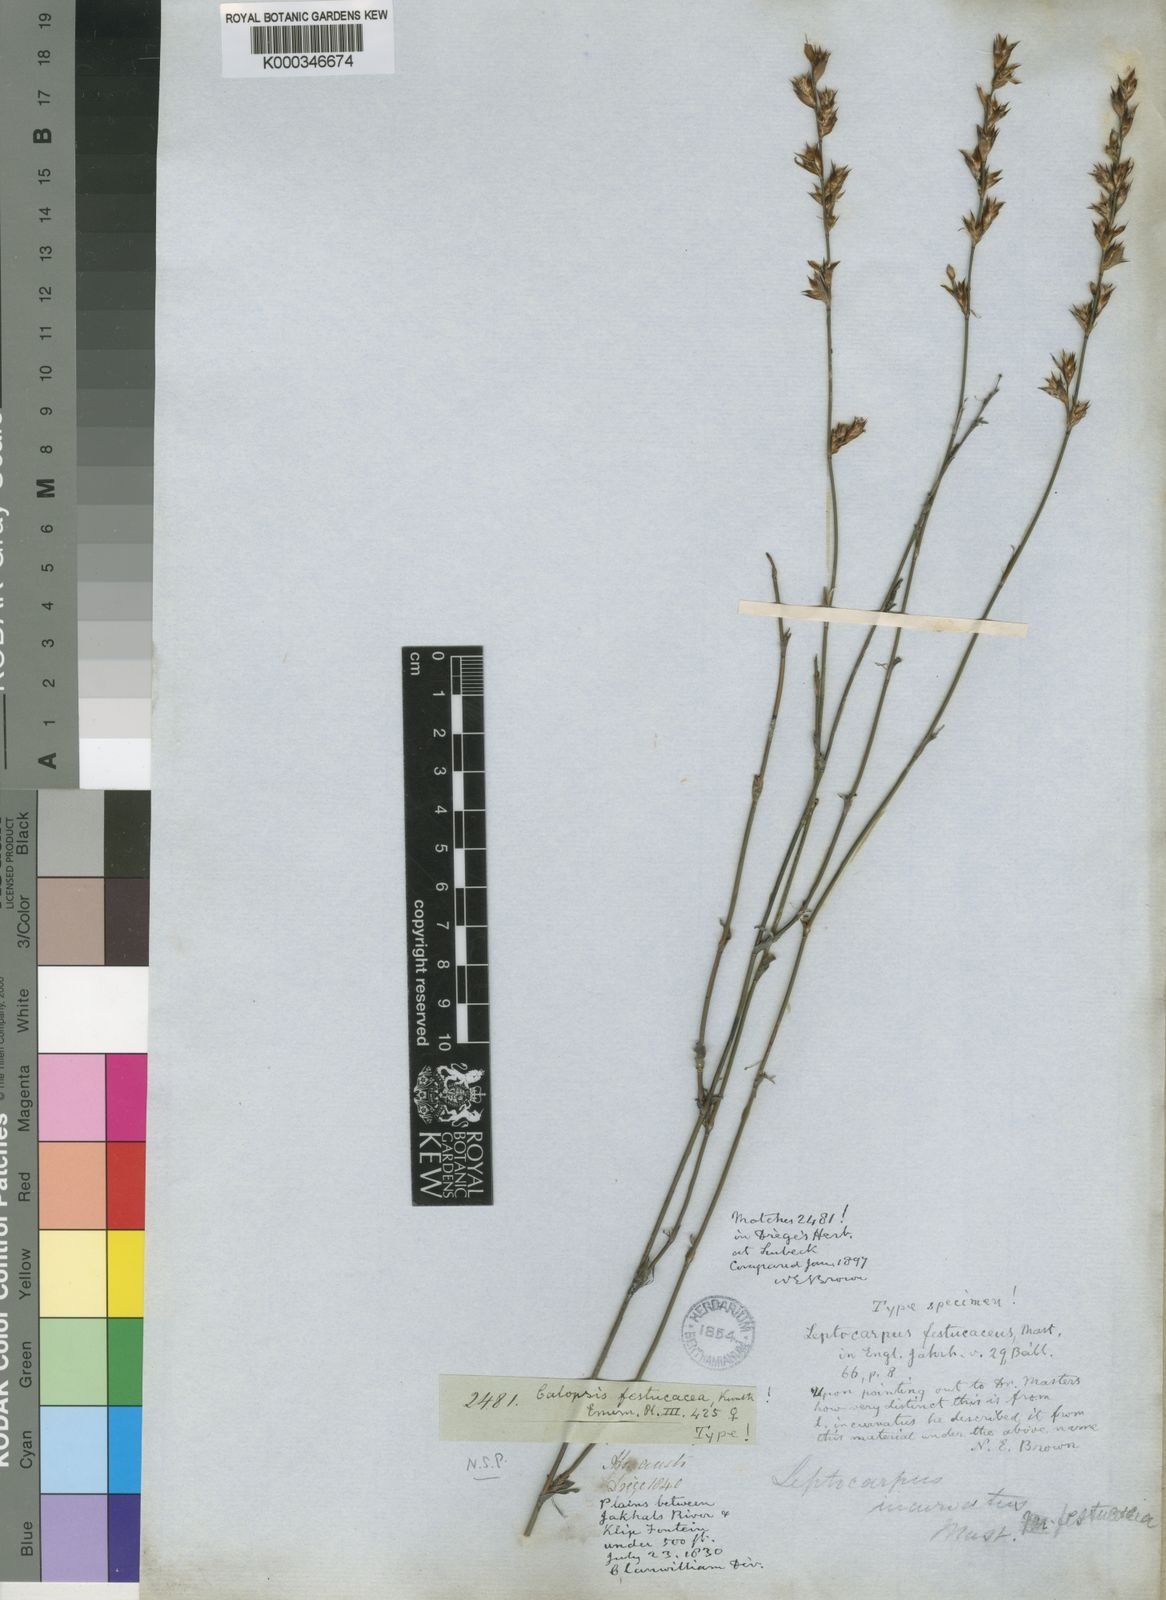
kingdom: Plantae
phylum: Tracheophyta
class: Liliopsida
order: Poales
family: Restionaceae
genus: Restio
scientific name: Restio vimineus
